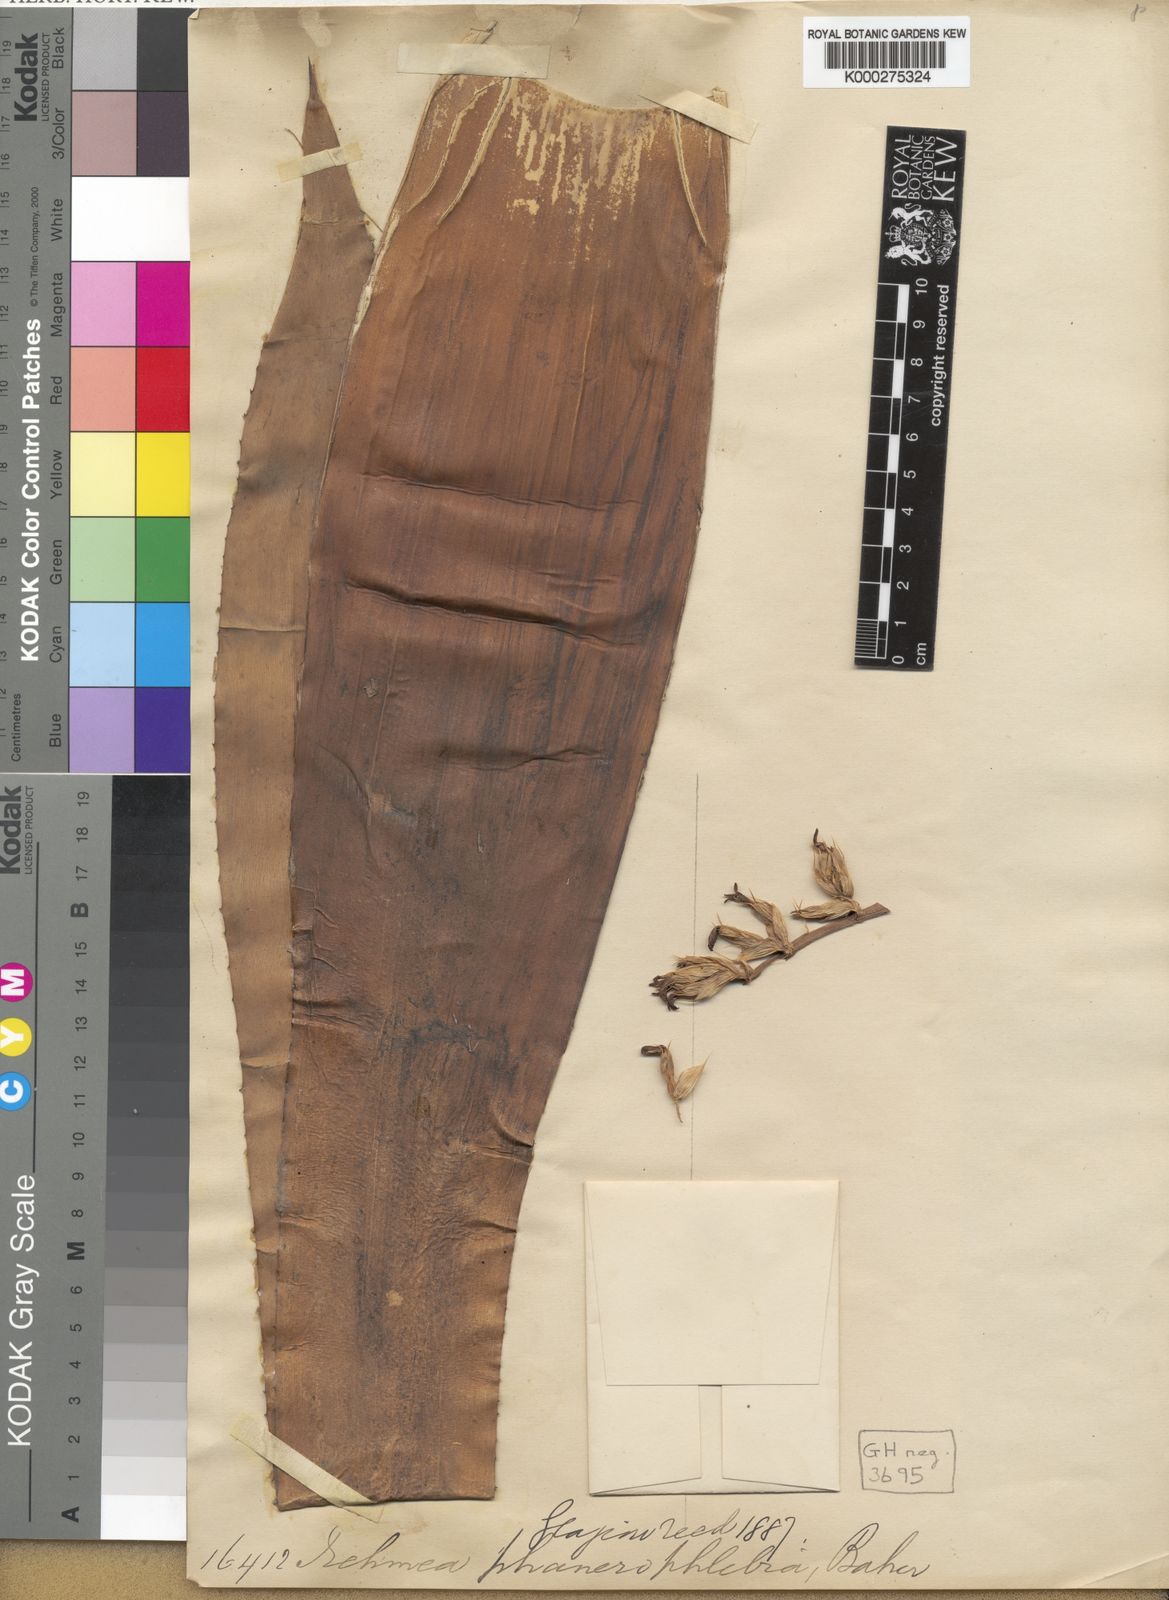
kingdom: Plantae
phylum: Tracheophyta
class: Liliopsida
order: Poales
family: Bromeliaceae
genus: Aechmea
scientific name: Aechmea phanerophlebia
